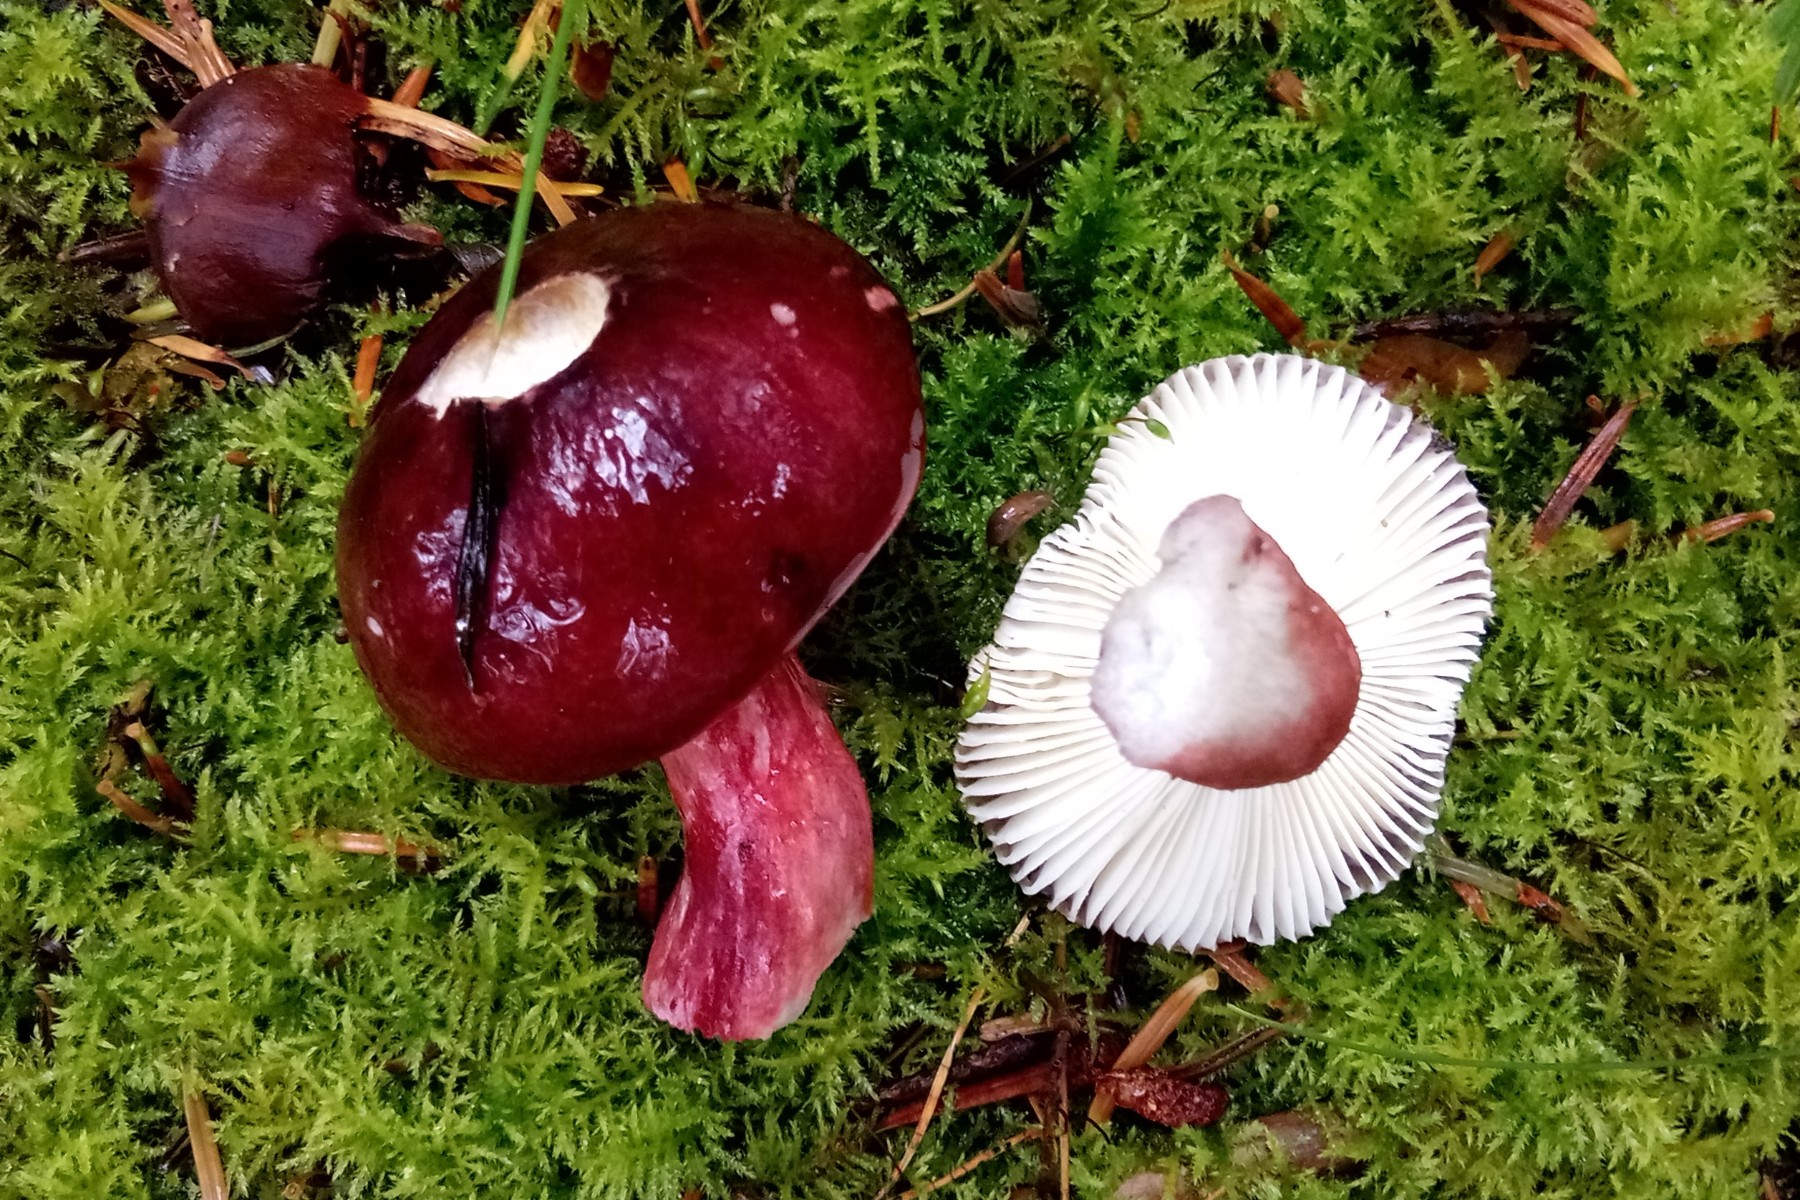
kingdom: Fungi
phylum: Basidiomycota
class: Agaricomycetes
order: Russulales
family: Russulaceae
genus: Russula
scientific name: Russula queletii
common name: Quélets skørhat
